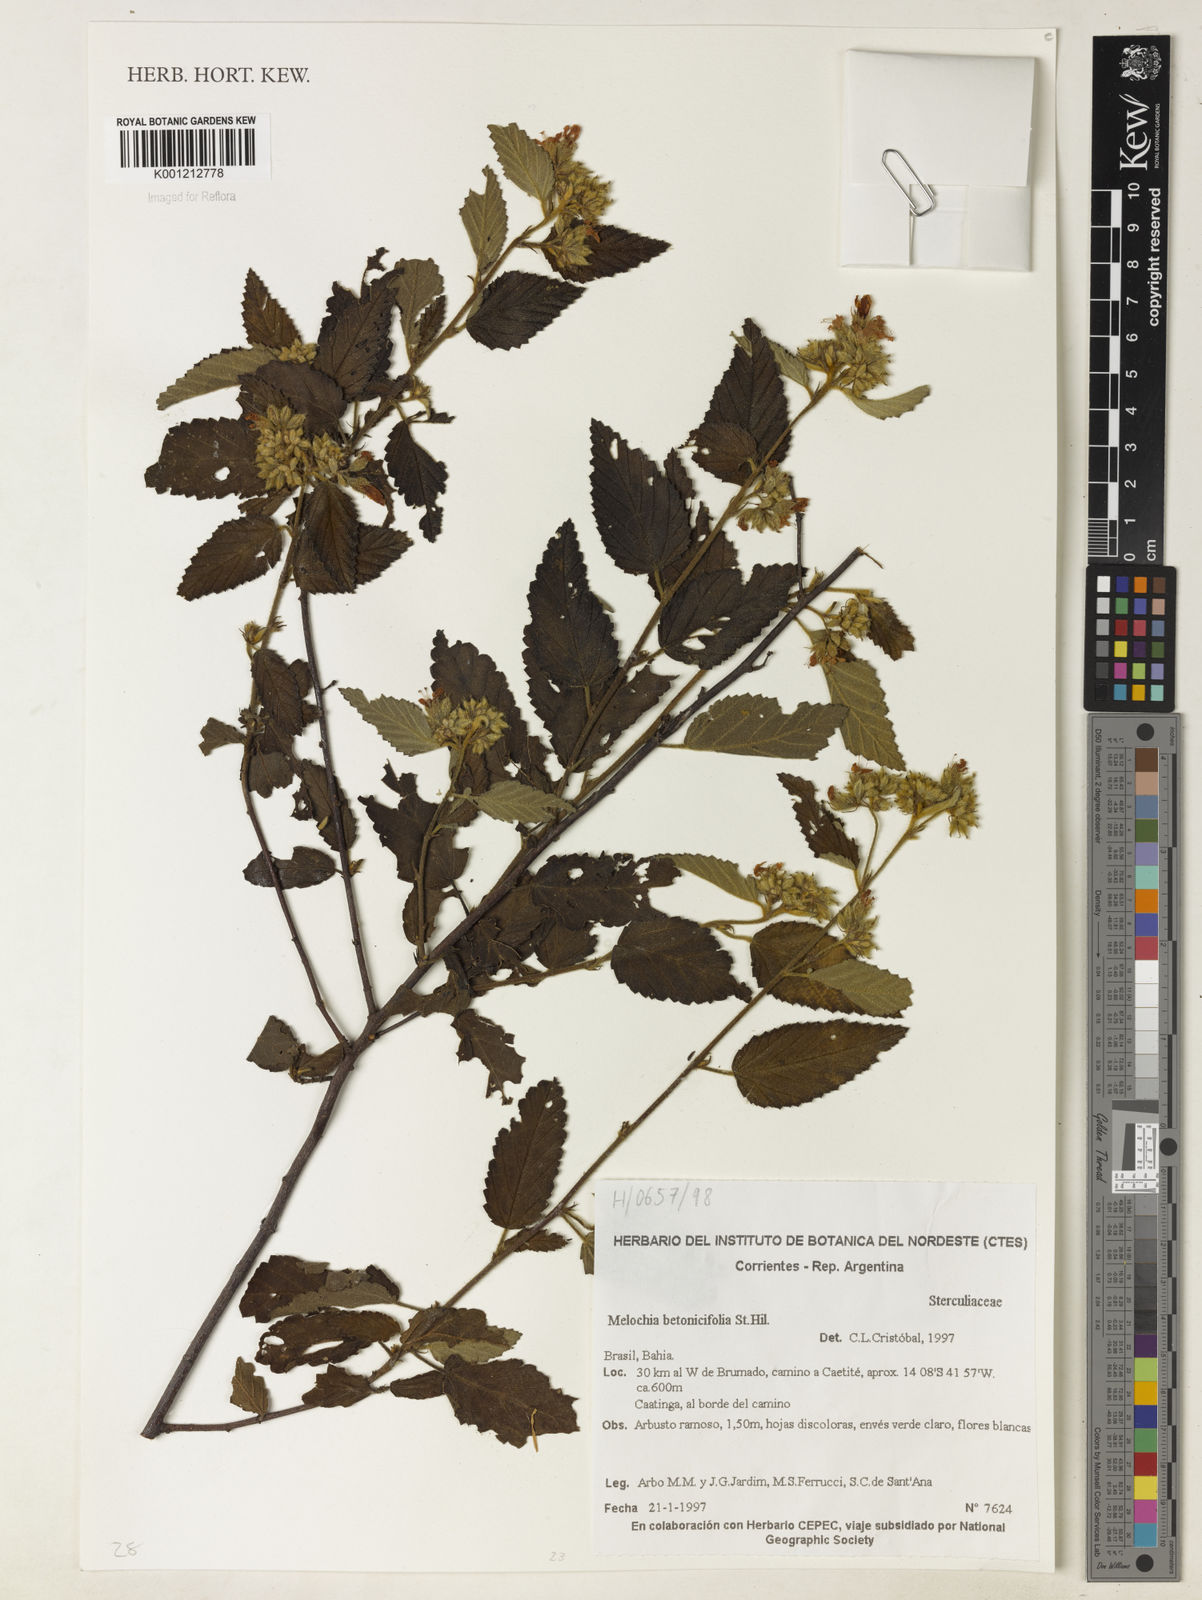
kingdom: Plantae
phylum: Tracheophyta
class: Magnoliopsida
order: Malvales
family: Malvaceae
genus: Melochia
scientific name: Melochia betonicifolia
